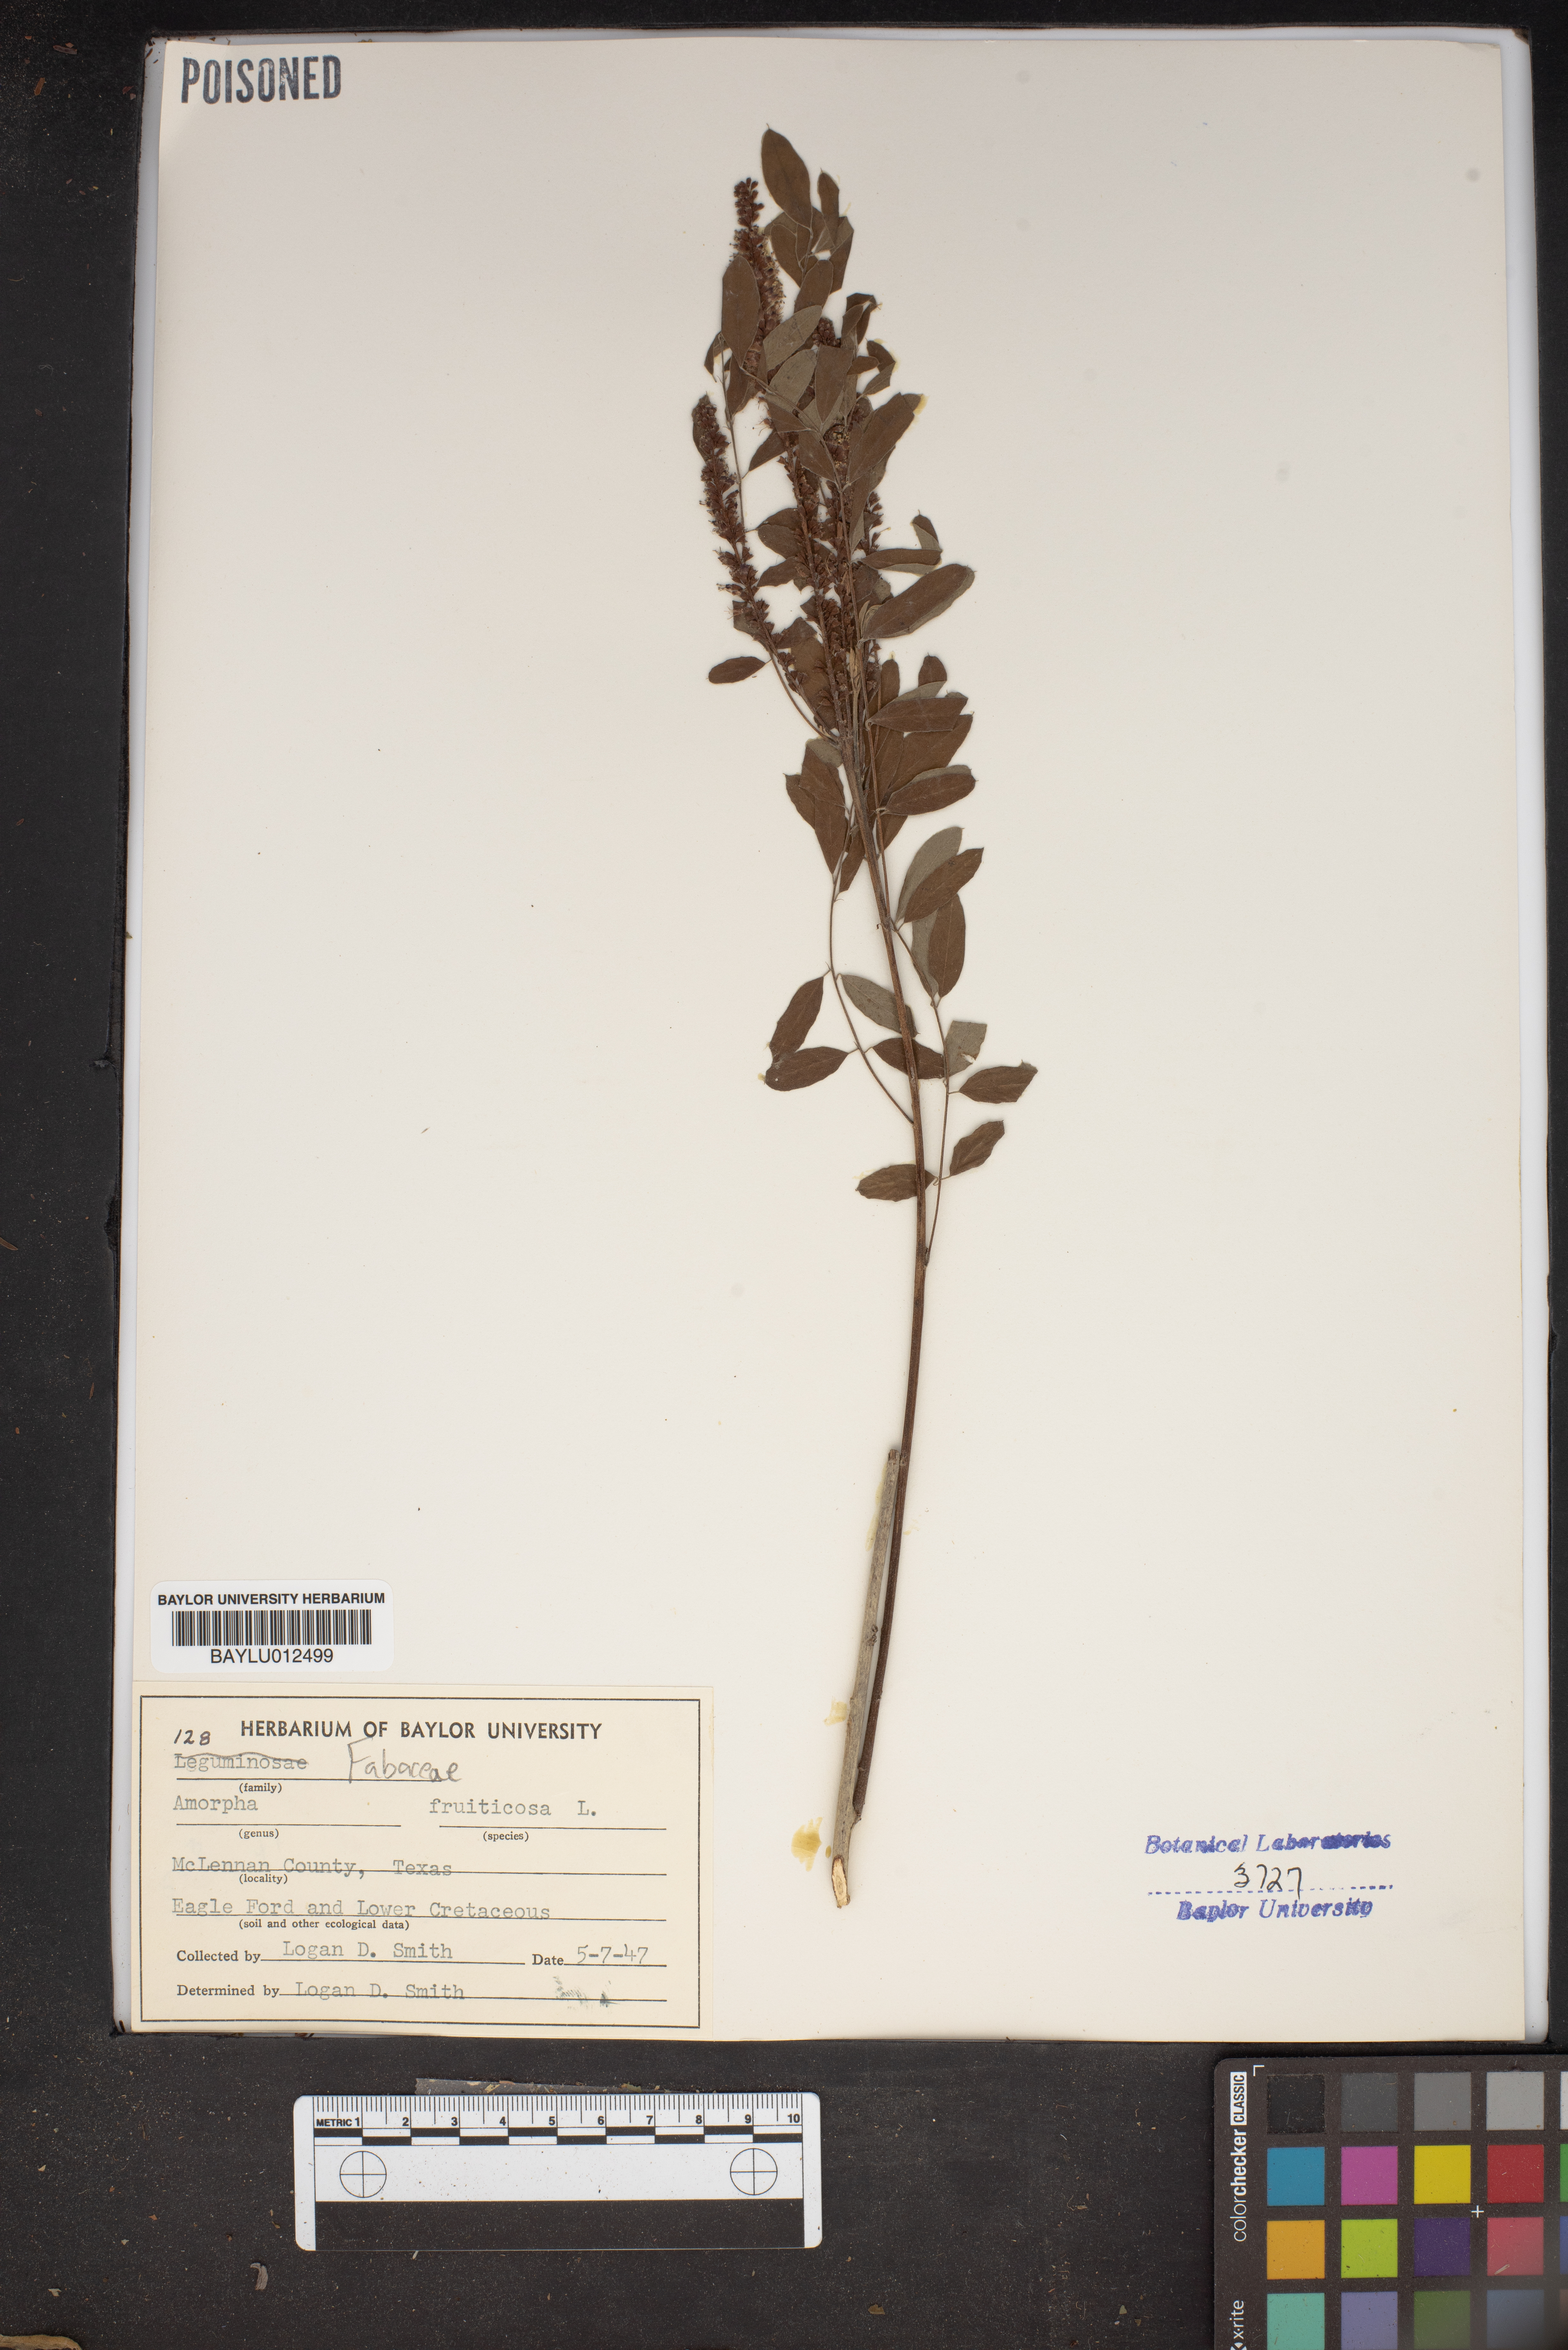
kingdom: Plantae
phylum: Tracheophyta
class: Magnoliopsida
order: Fabales
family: Fabaceae
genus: Amorpha
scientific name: Amorpha fruticosa
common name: False indigo
